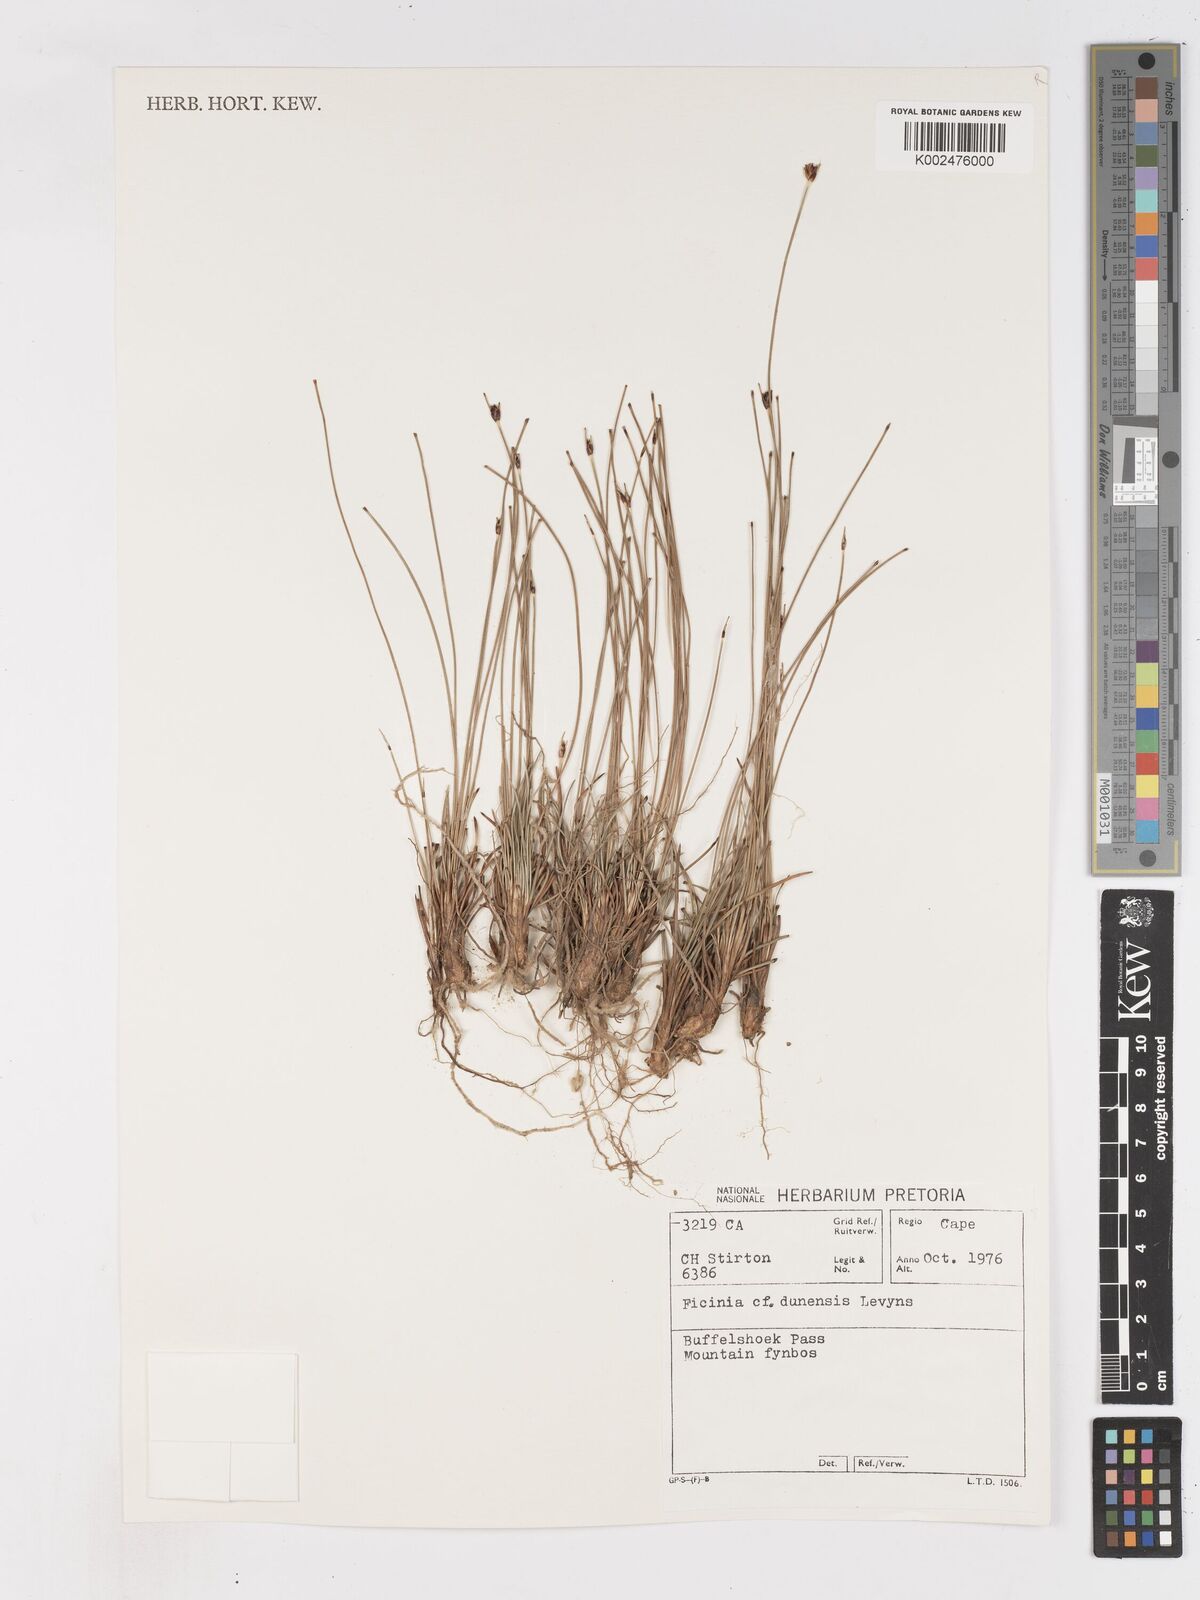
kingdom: Plantae
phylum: Tracheophyta
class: Liliopsida
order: Poales
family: Cyperaceae
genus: Ficinia
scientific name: Ficinia indica
